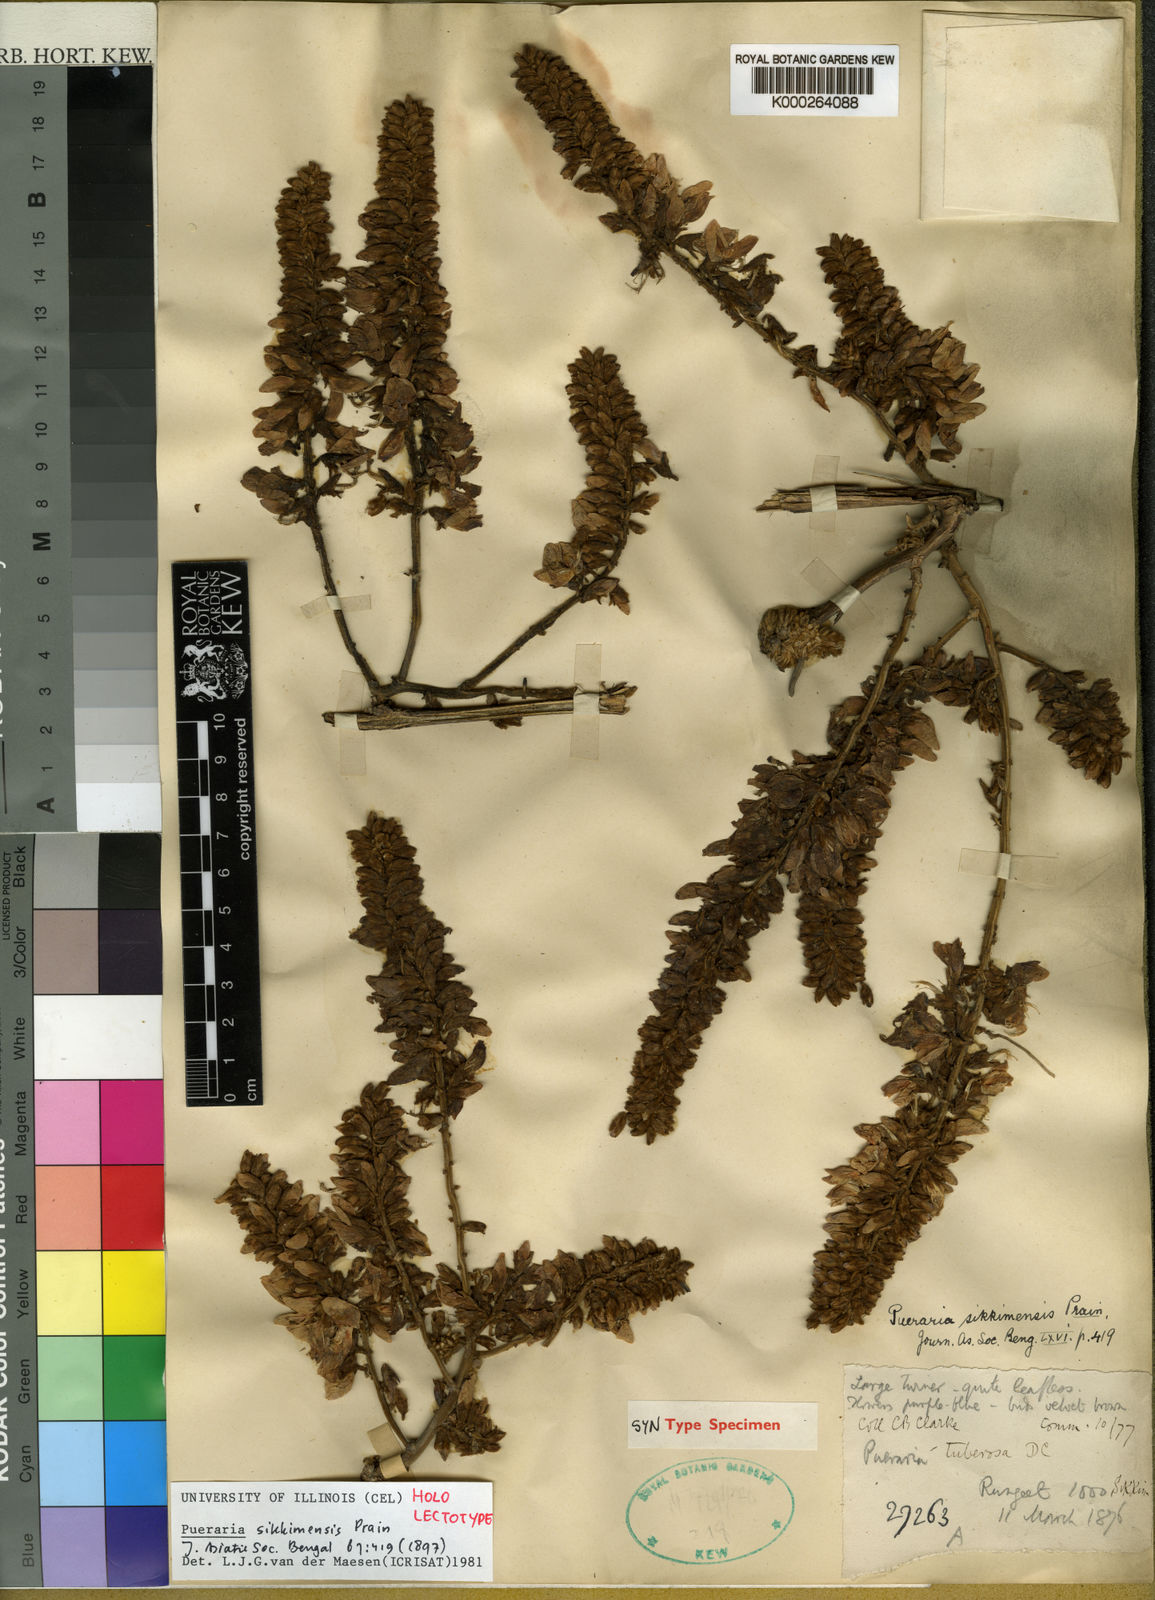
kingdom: Plantae
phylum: Tracheophyta
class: Magnoliopsida
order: Fabales
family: Fabaceae
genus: Pueraria
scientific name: Pueraria sikkimensis
